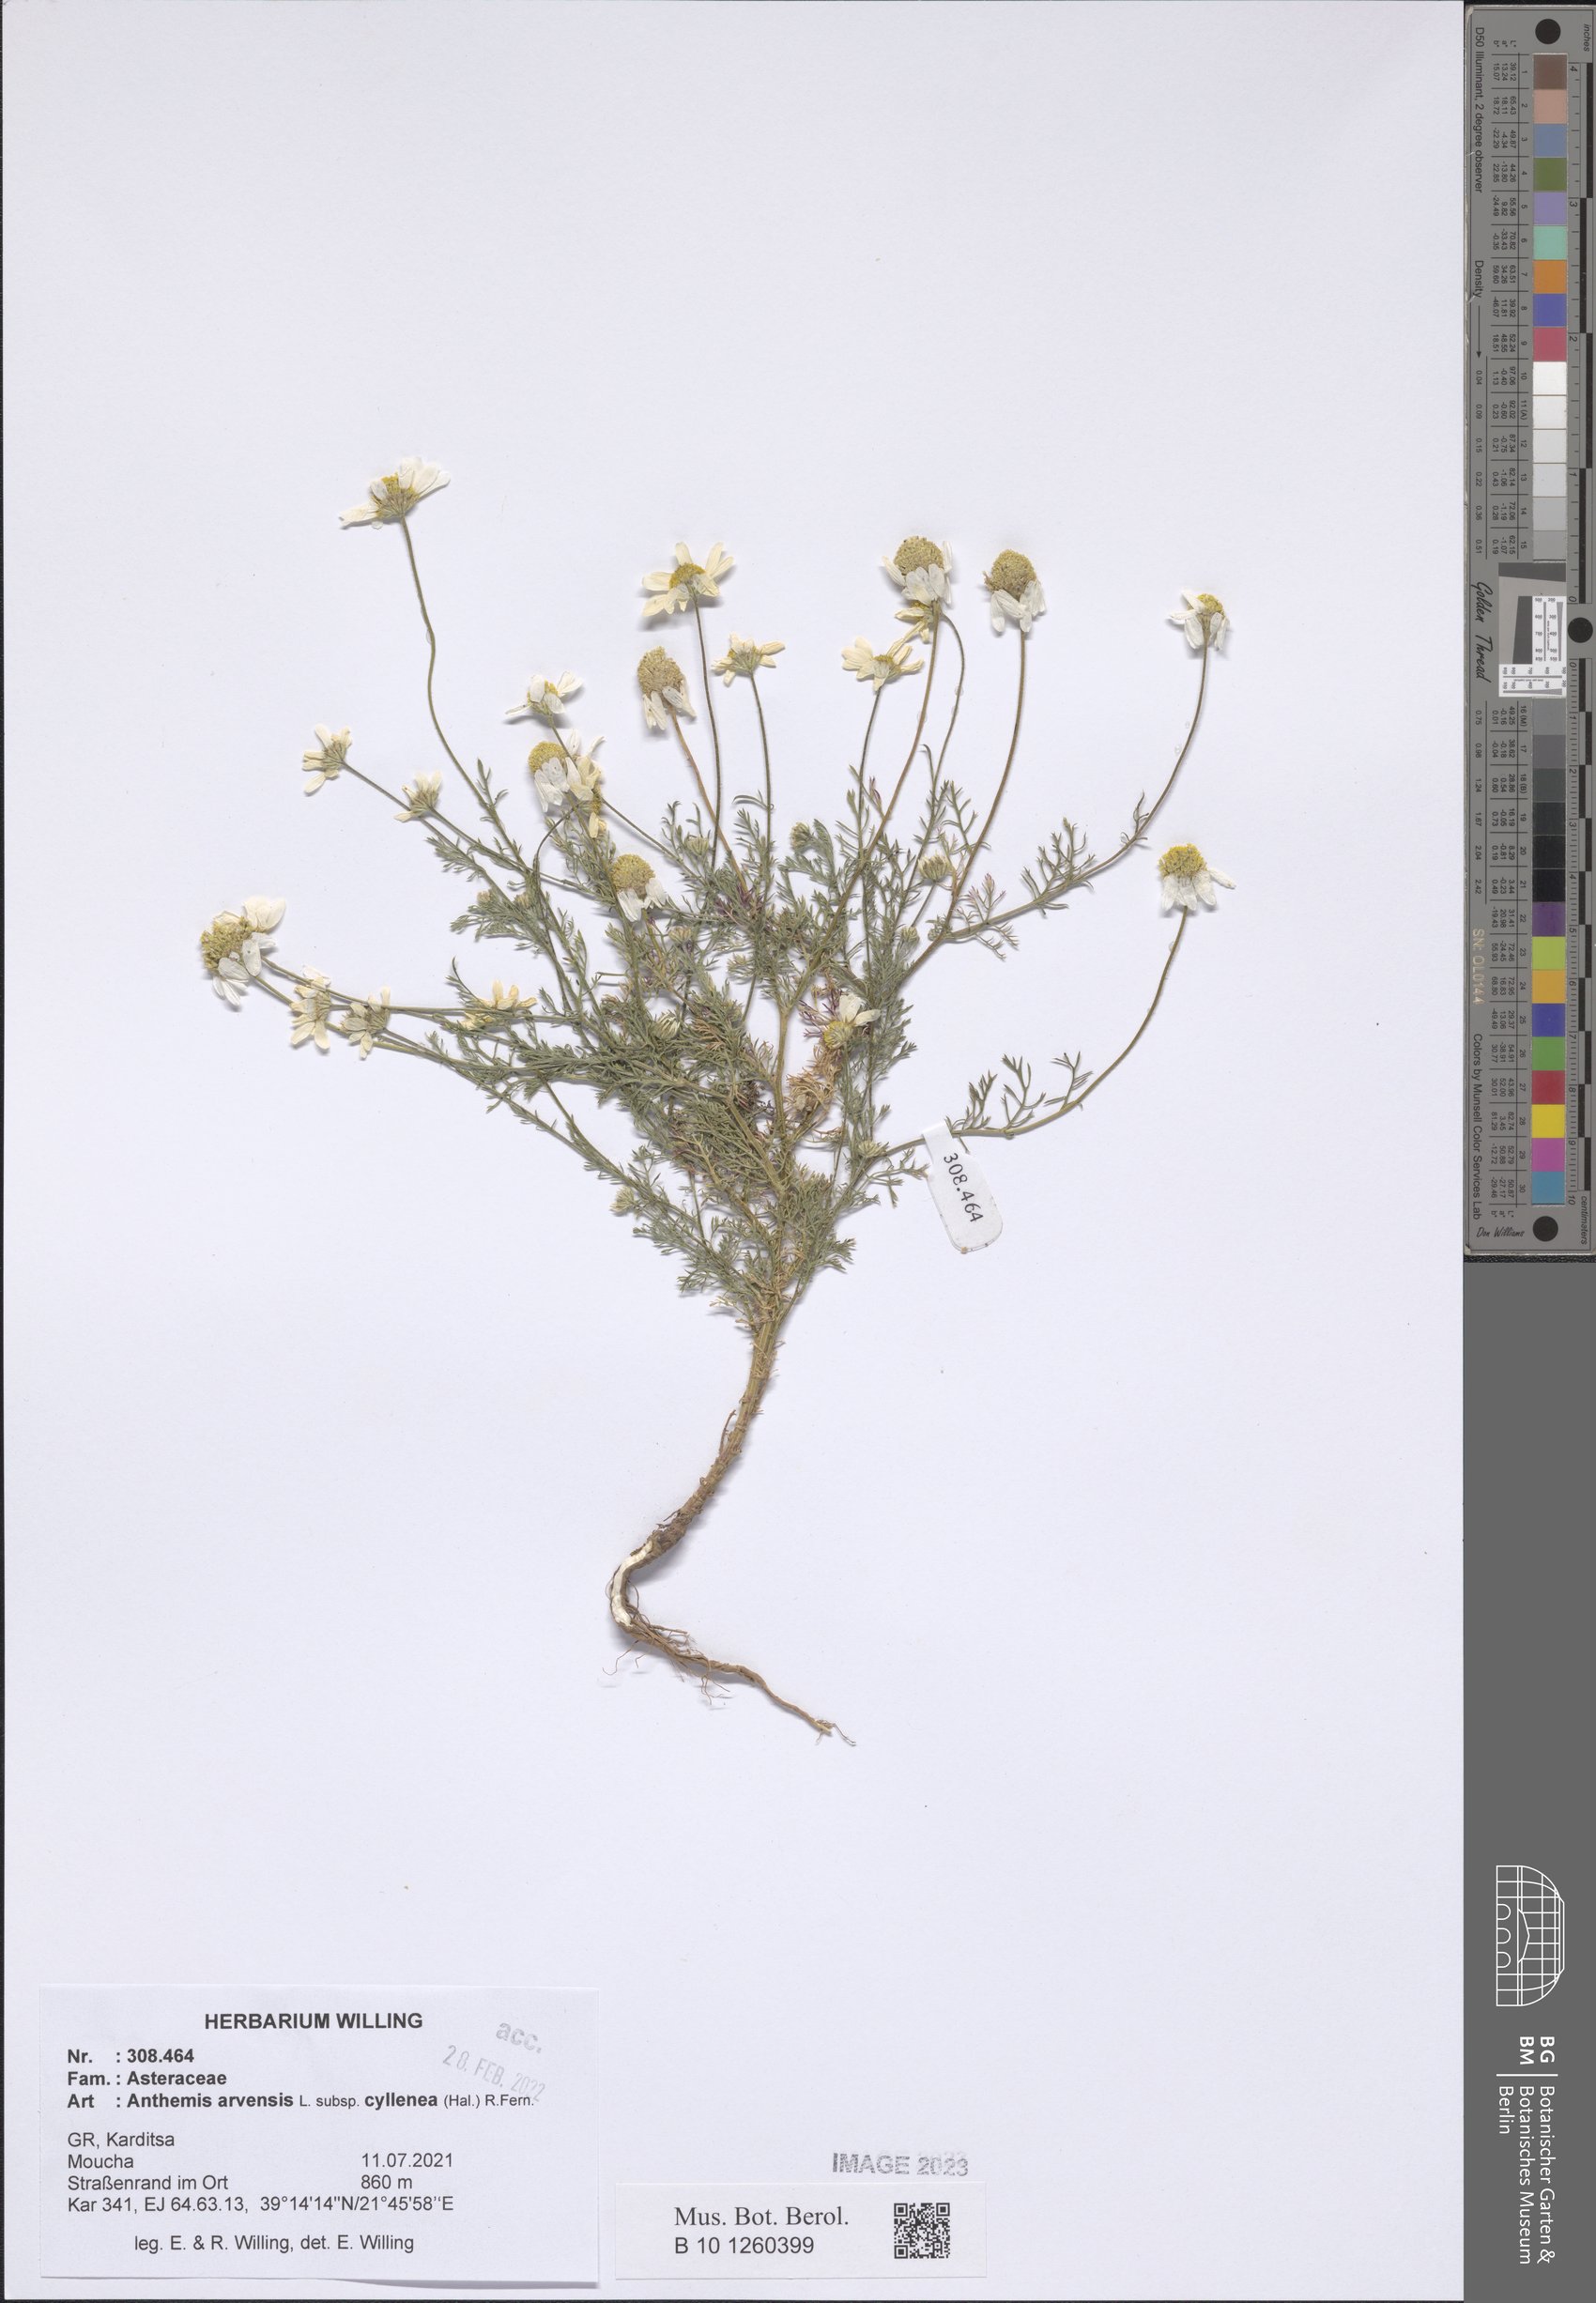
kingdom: Plantae
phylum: Tracheophyta
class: Magnoliopsida
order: Asterales
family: Asteraceae
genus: Anthemis
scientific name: Anthemis arvensis
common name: Corn chamomile
